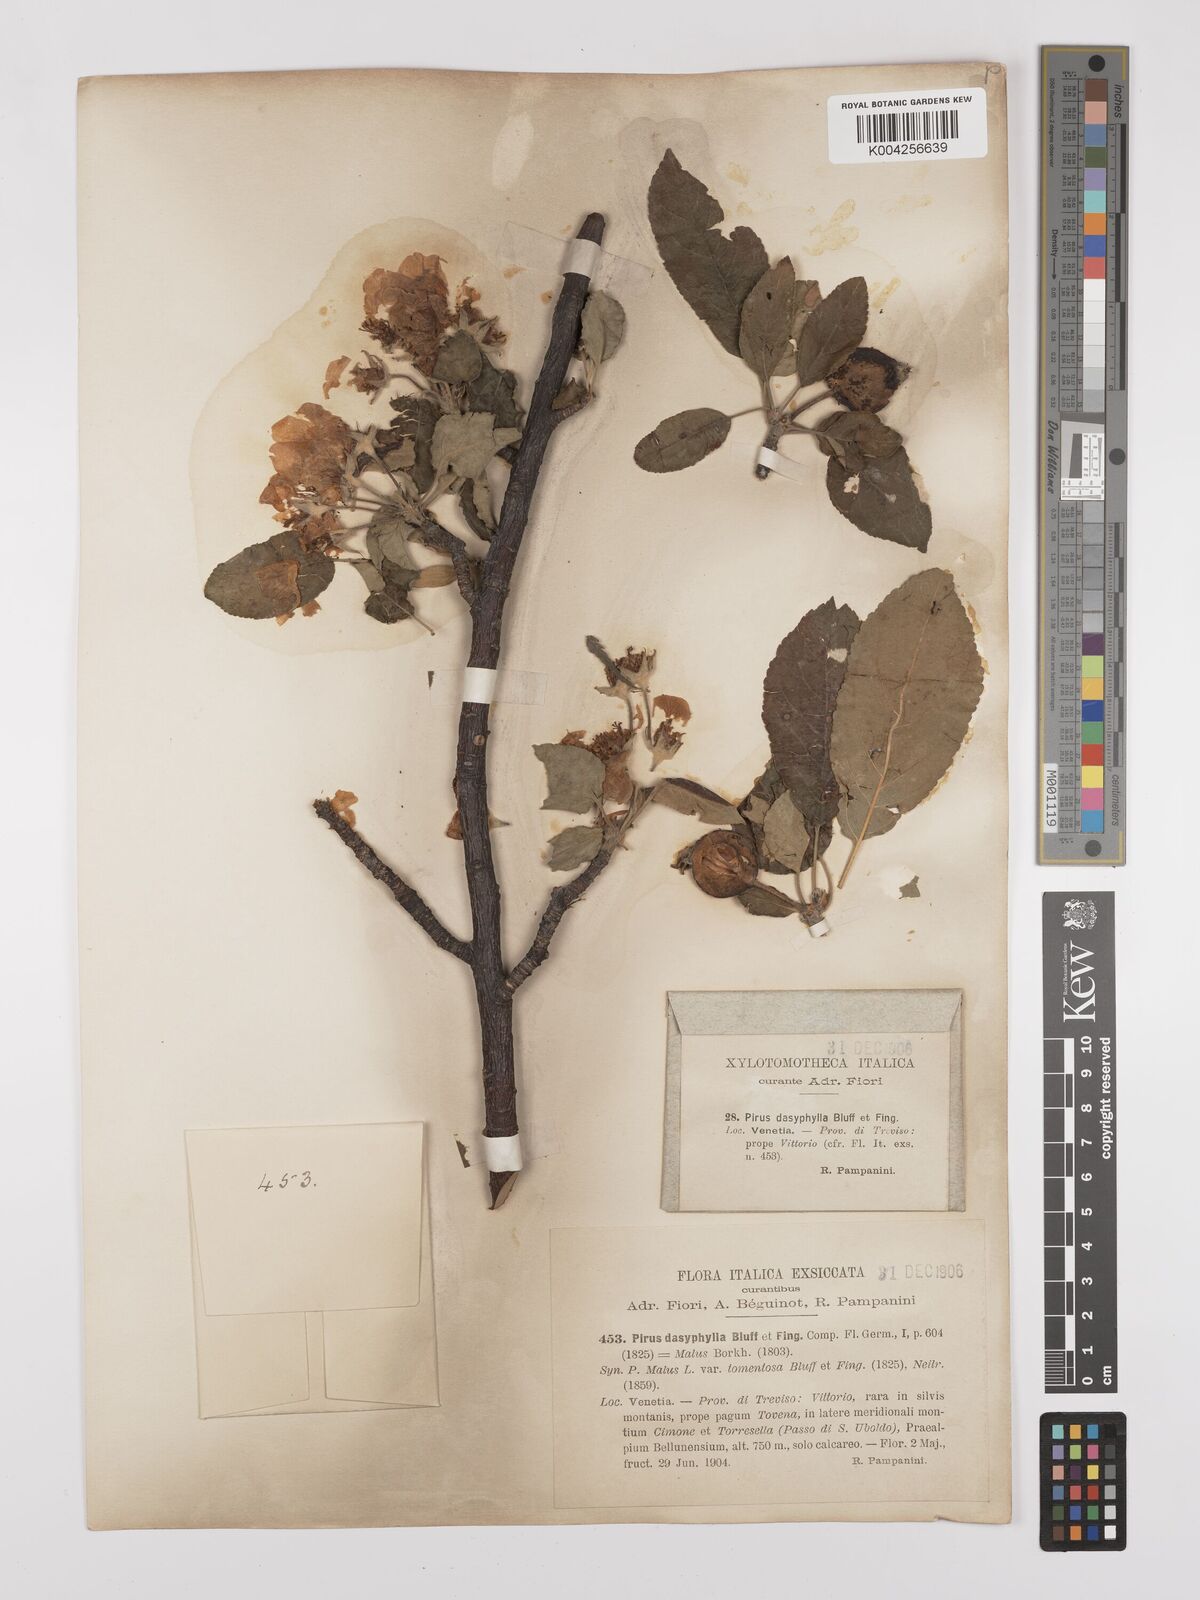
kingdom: Plantae
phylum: Tracheophyta
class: Magnoliopsida
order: Rosales
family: Rosaceae
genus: Malus
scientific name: Malus domestica
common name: Apple
